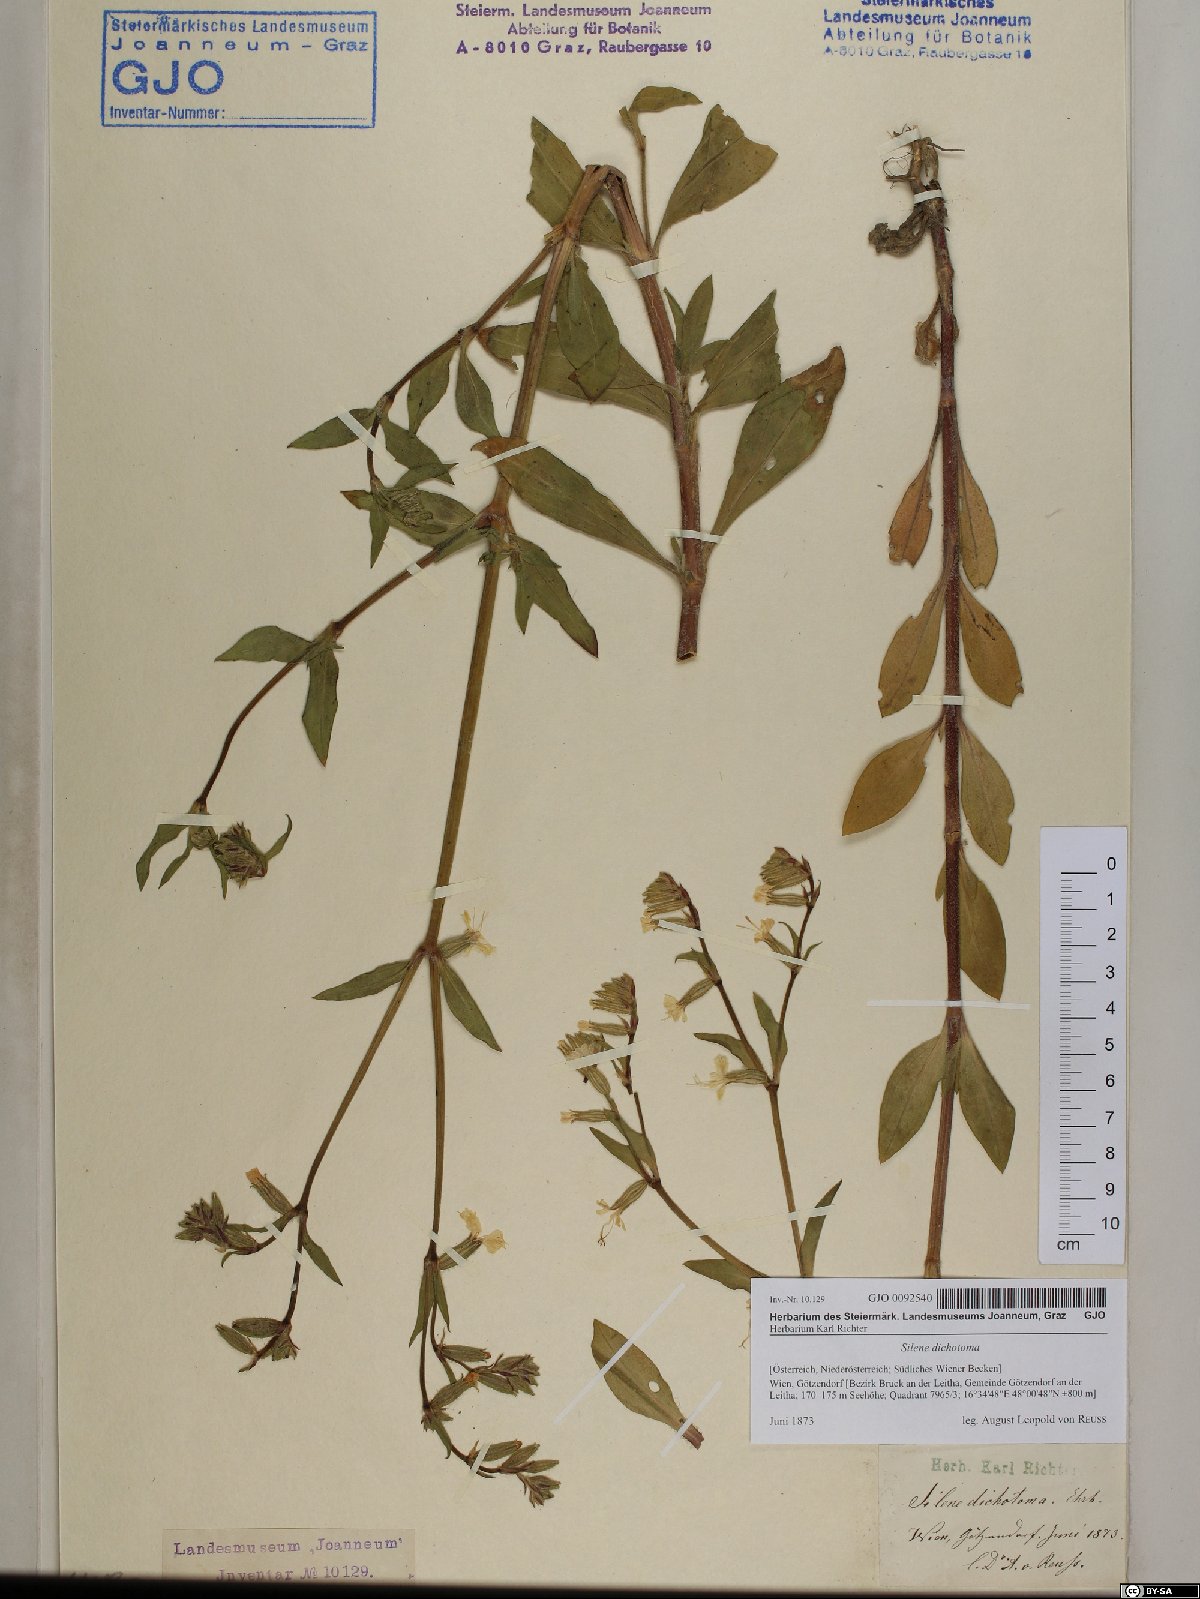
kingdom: Plantae
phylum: Tracheophyta
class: Magnoliopsida
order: Caryophyllales
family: Caryophyllaceae
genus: Silene
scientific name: Silene dichotoma
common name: Forked catchfly
